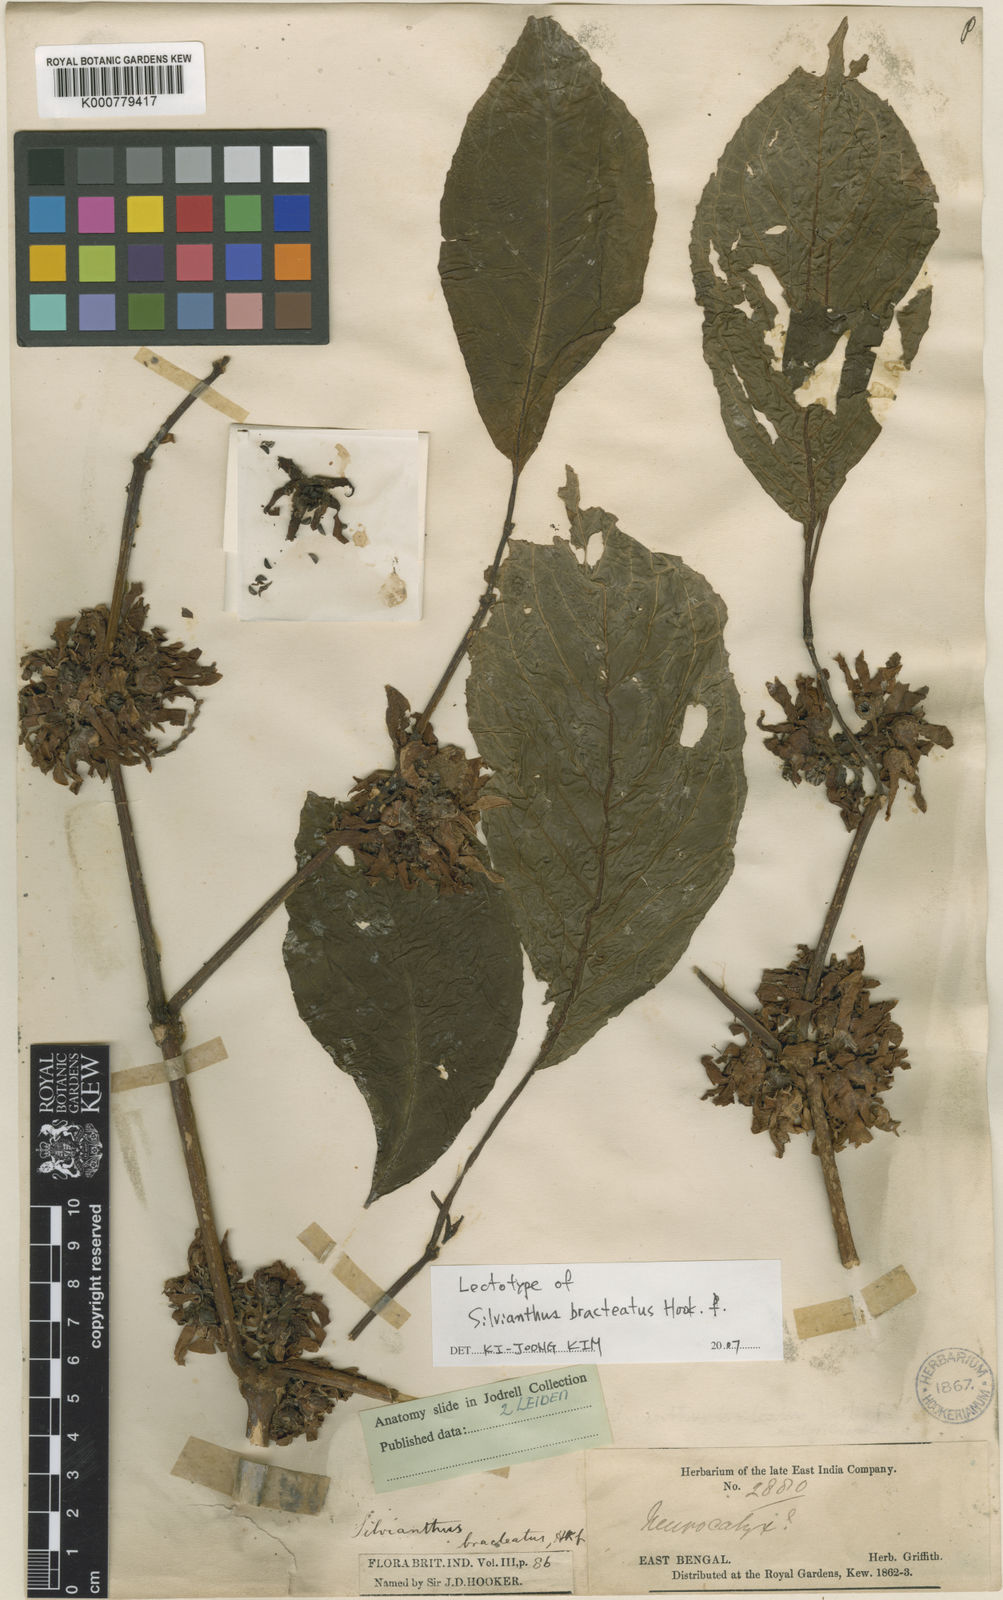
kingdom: Plantae
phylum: Tracheophyta
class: Magnoliopsida
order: Lamiales
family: Carlemanniaceae
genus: Silvianthus
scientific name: Silvianthus bracteatus
